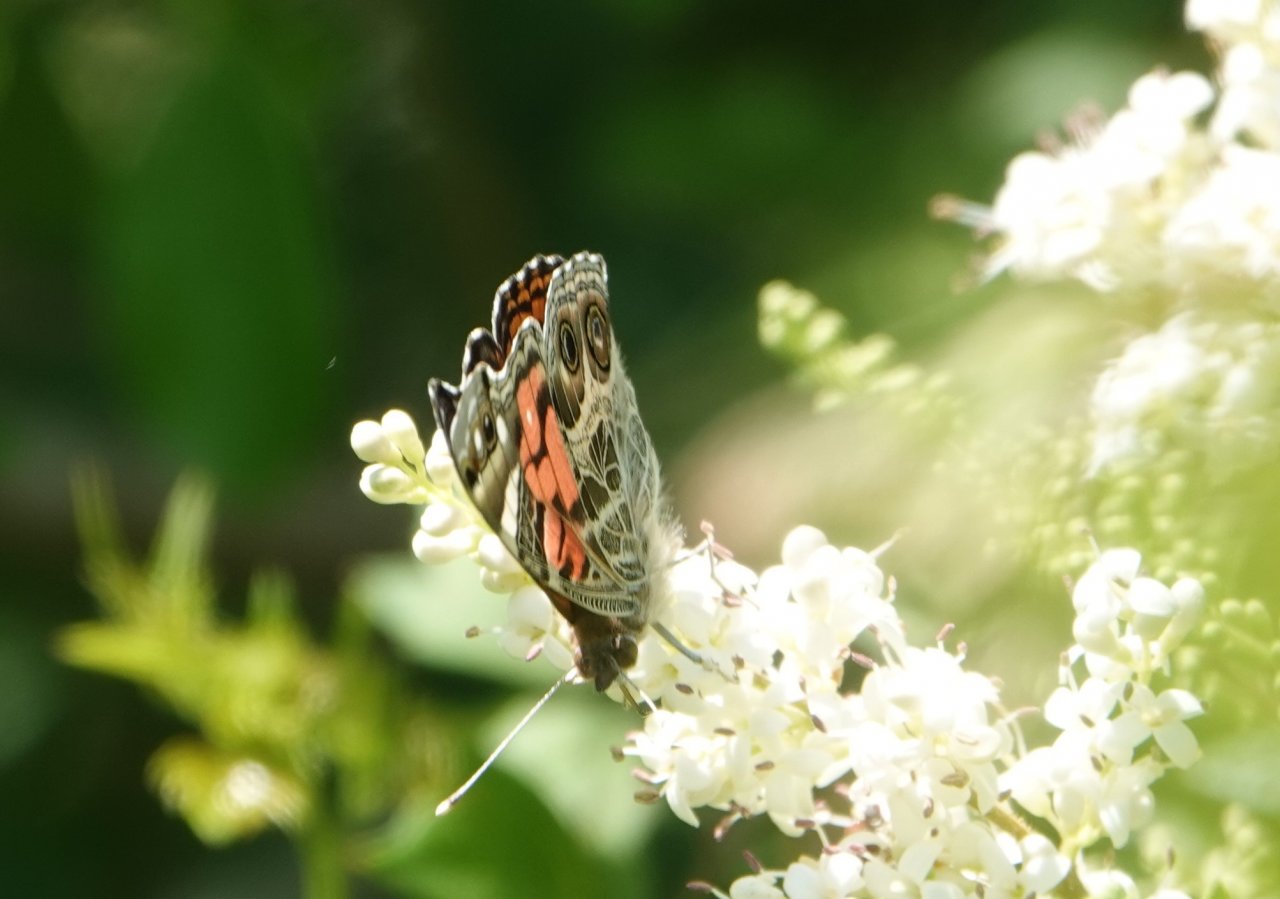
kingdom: Animalia
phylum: Arthropoda
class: Insecta
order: Lepidoptera
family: Nymphalidae
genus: Vanessa
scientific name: Vanessa virginiensis
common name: American Lady
